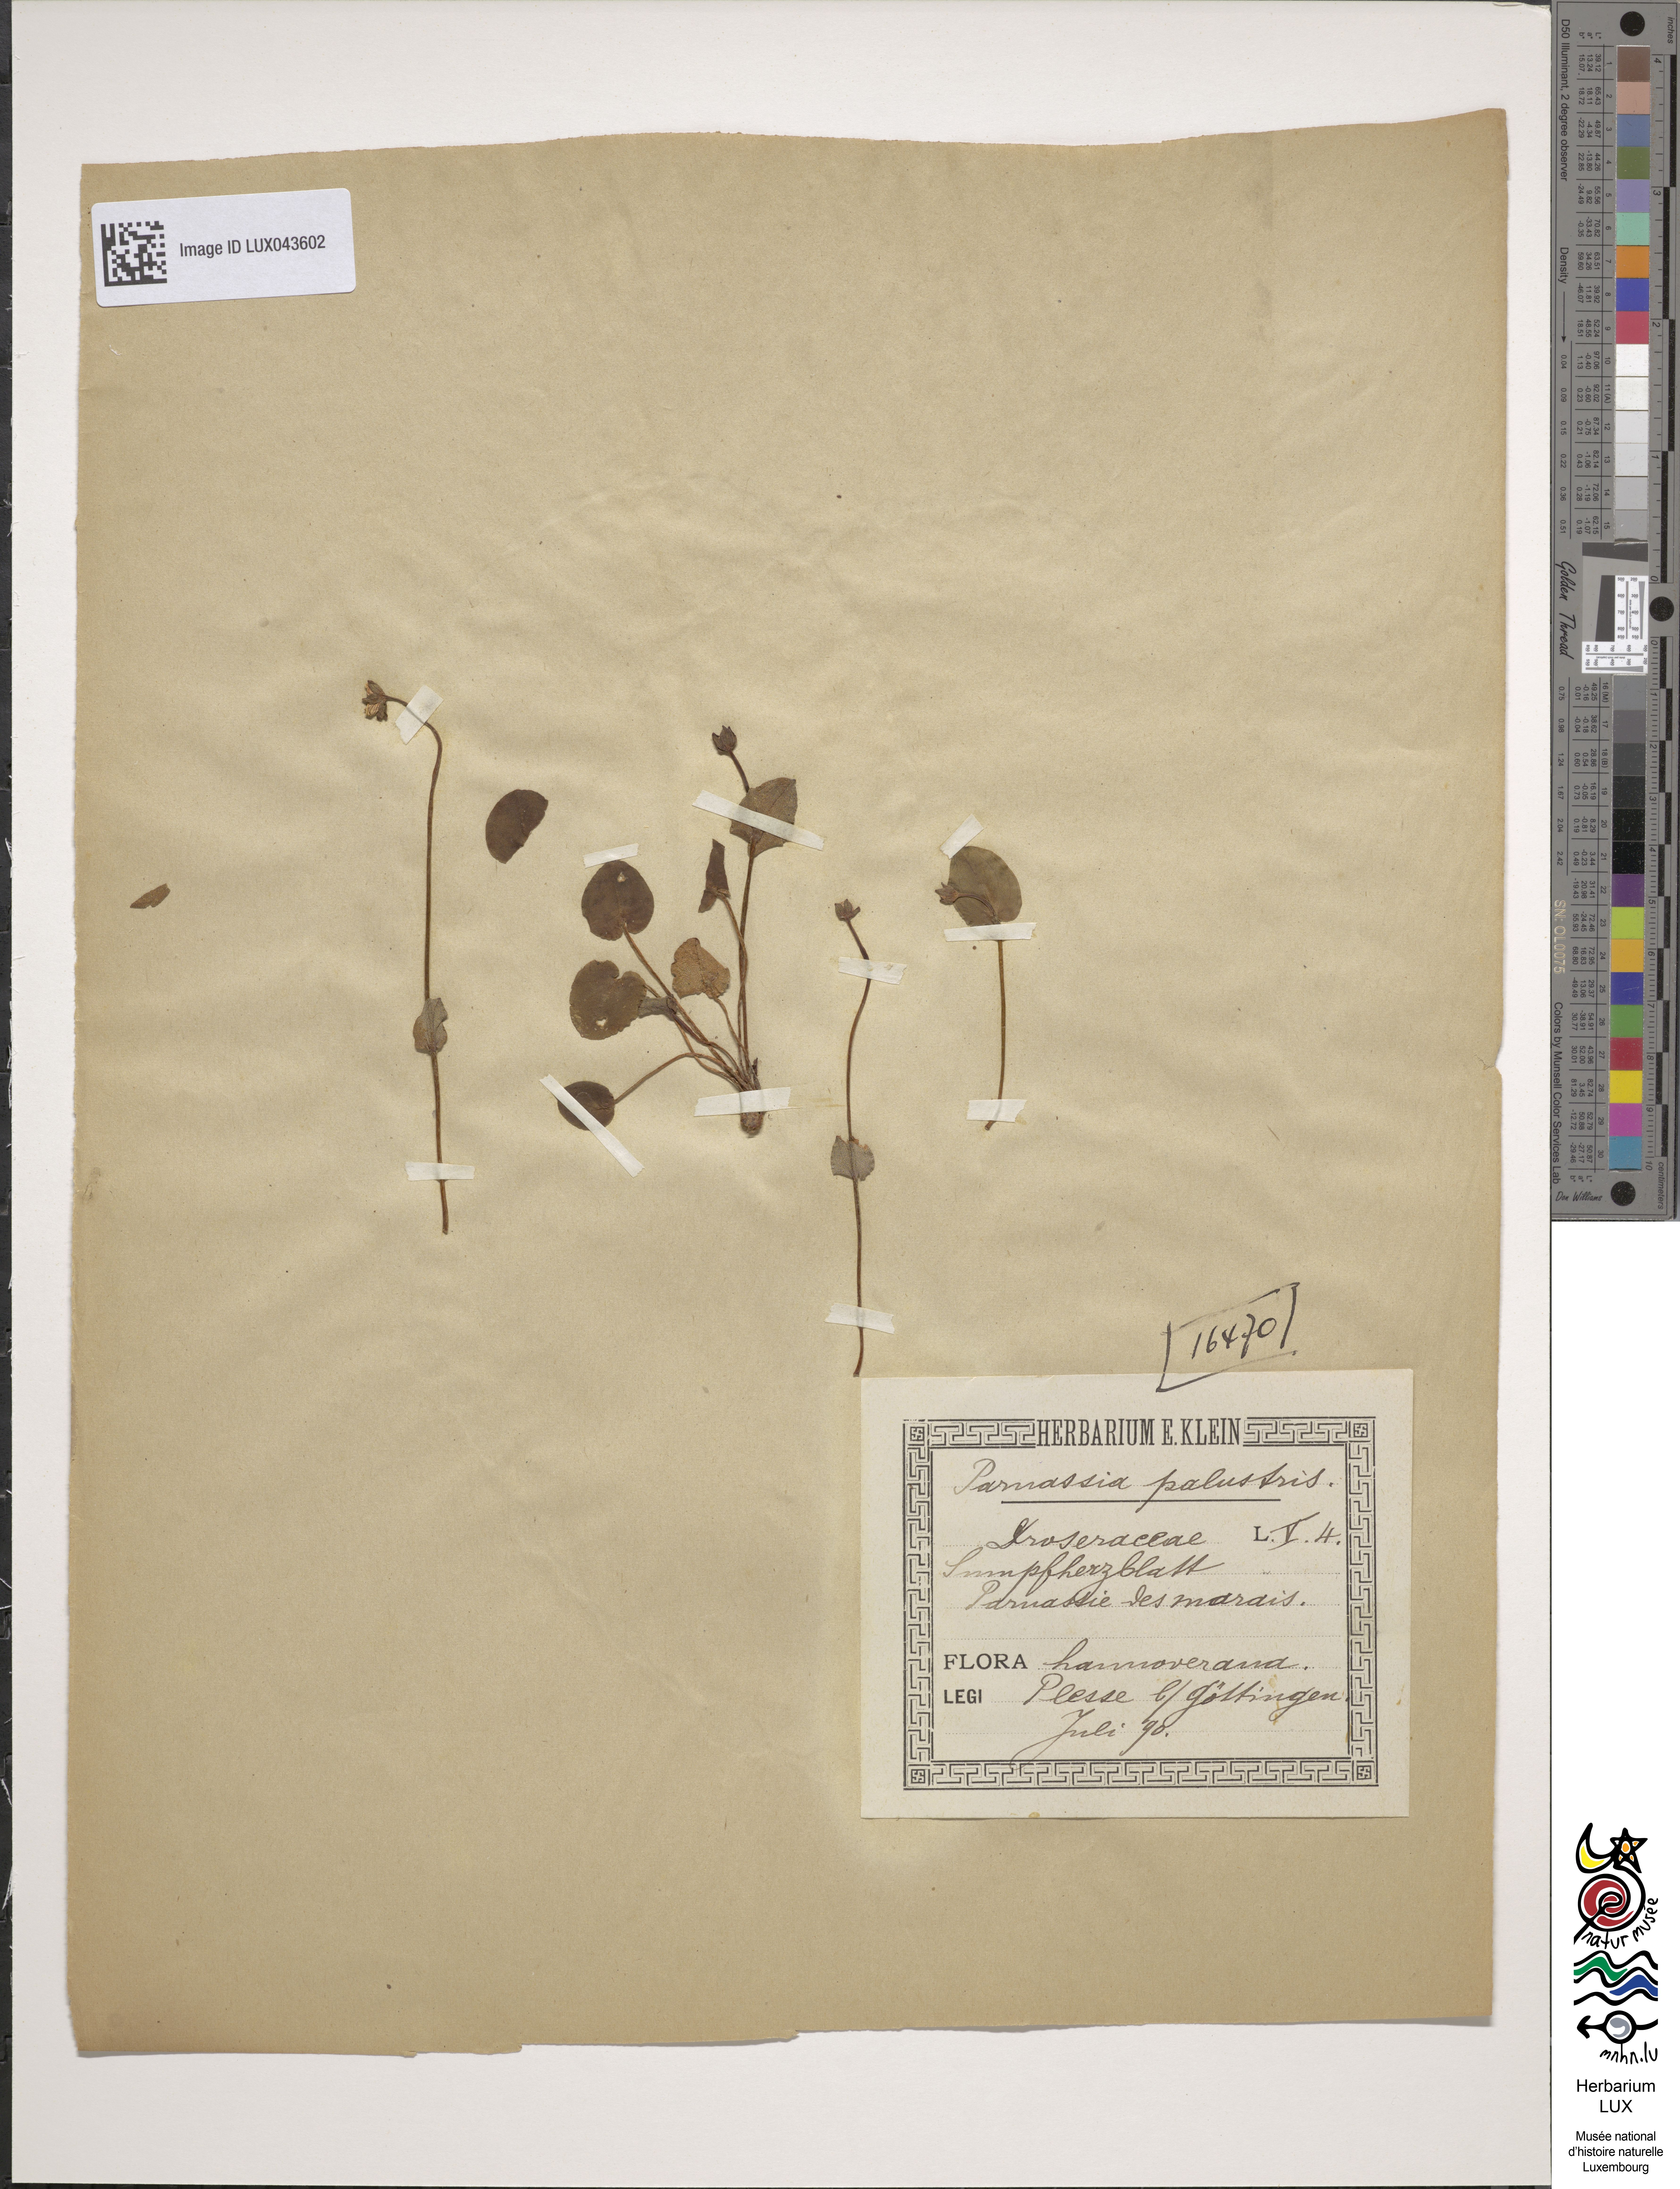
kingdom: Plantae
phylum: Tracheophyta
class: Magnoliopsida
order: Celastrales
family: Parnassiaceae
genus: Parnassia
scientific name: Parnassia palustris
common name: Grass-of-parnassus
